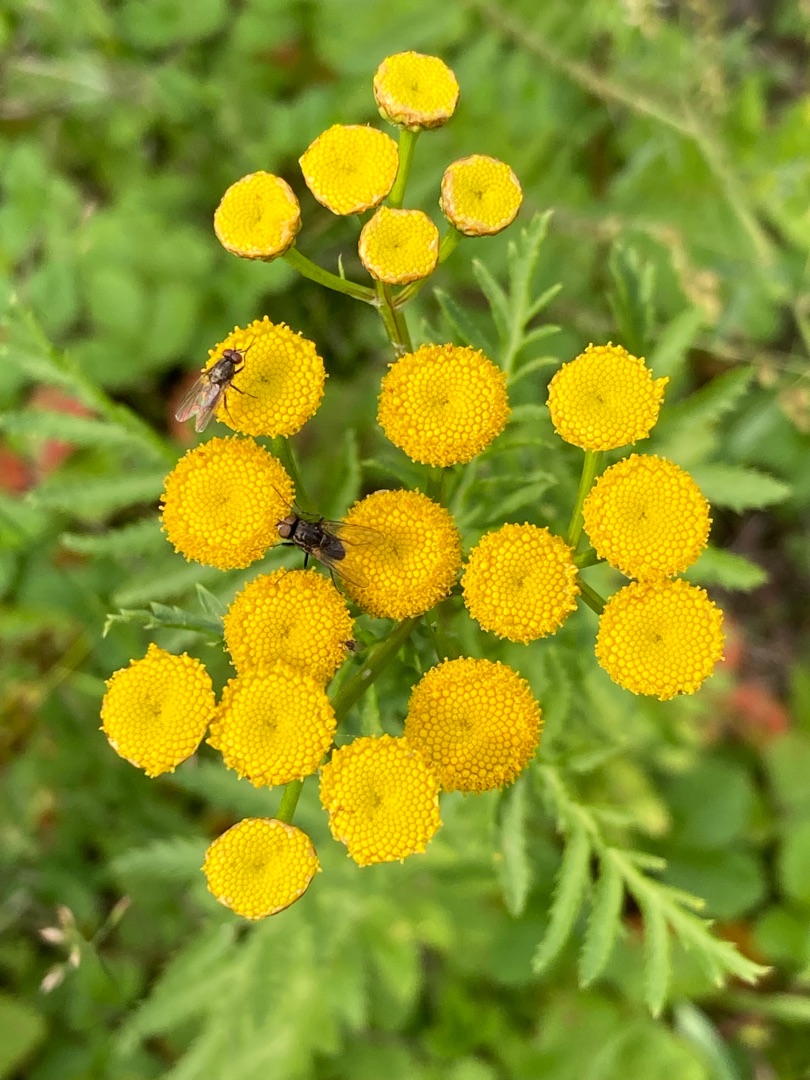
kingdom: Plantae
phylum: Tracheophyta
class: Magnoliopsida
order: Asterales
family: Asteraceae
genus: Tanacetum
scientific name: Tanacetum vulgare
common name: Rejnfan
